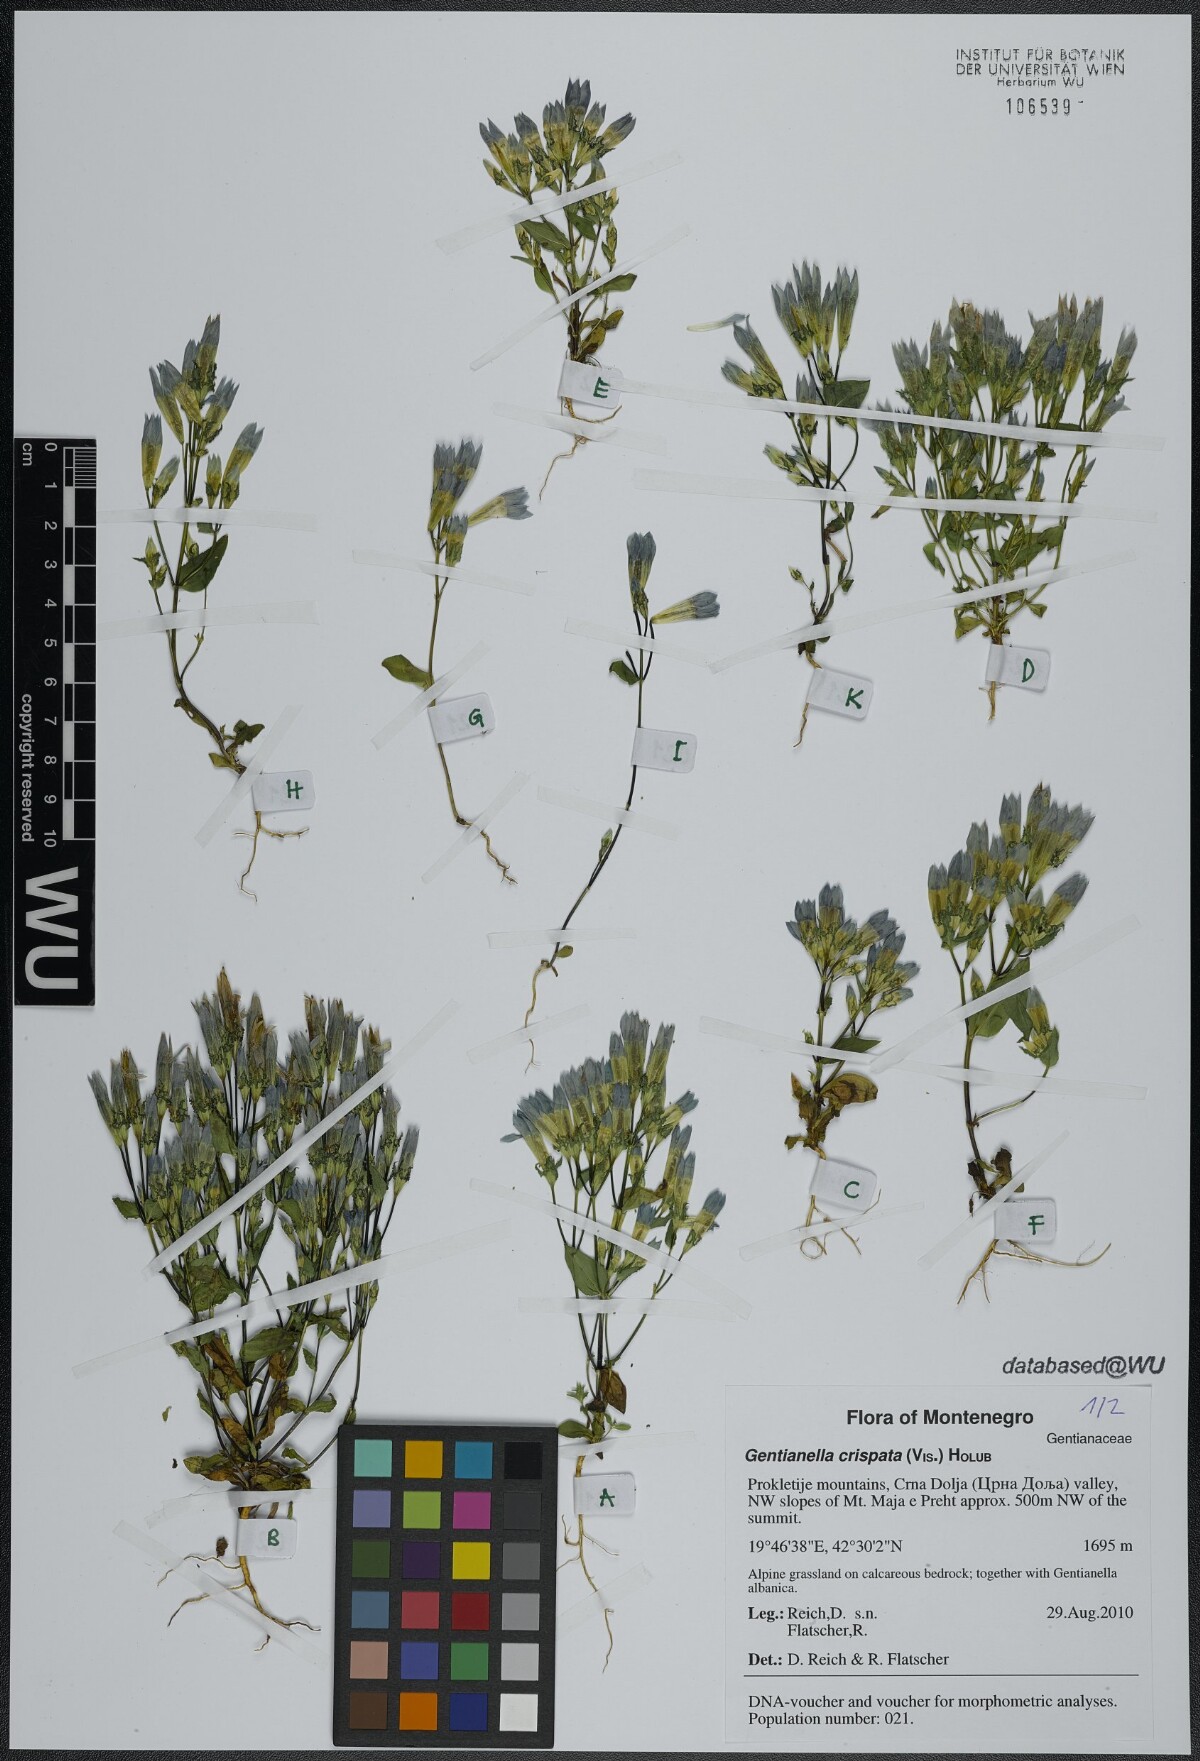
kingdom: Plantae
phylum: Tracheophyta
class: Magnoliopsida
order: Gentianales
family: Gentianaceae
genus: Gentianella
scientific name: Gentianella crispata
